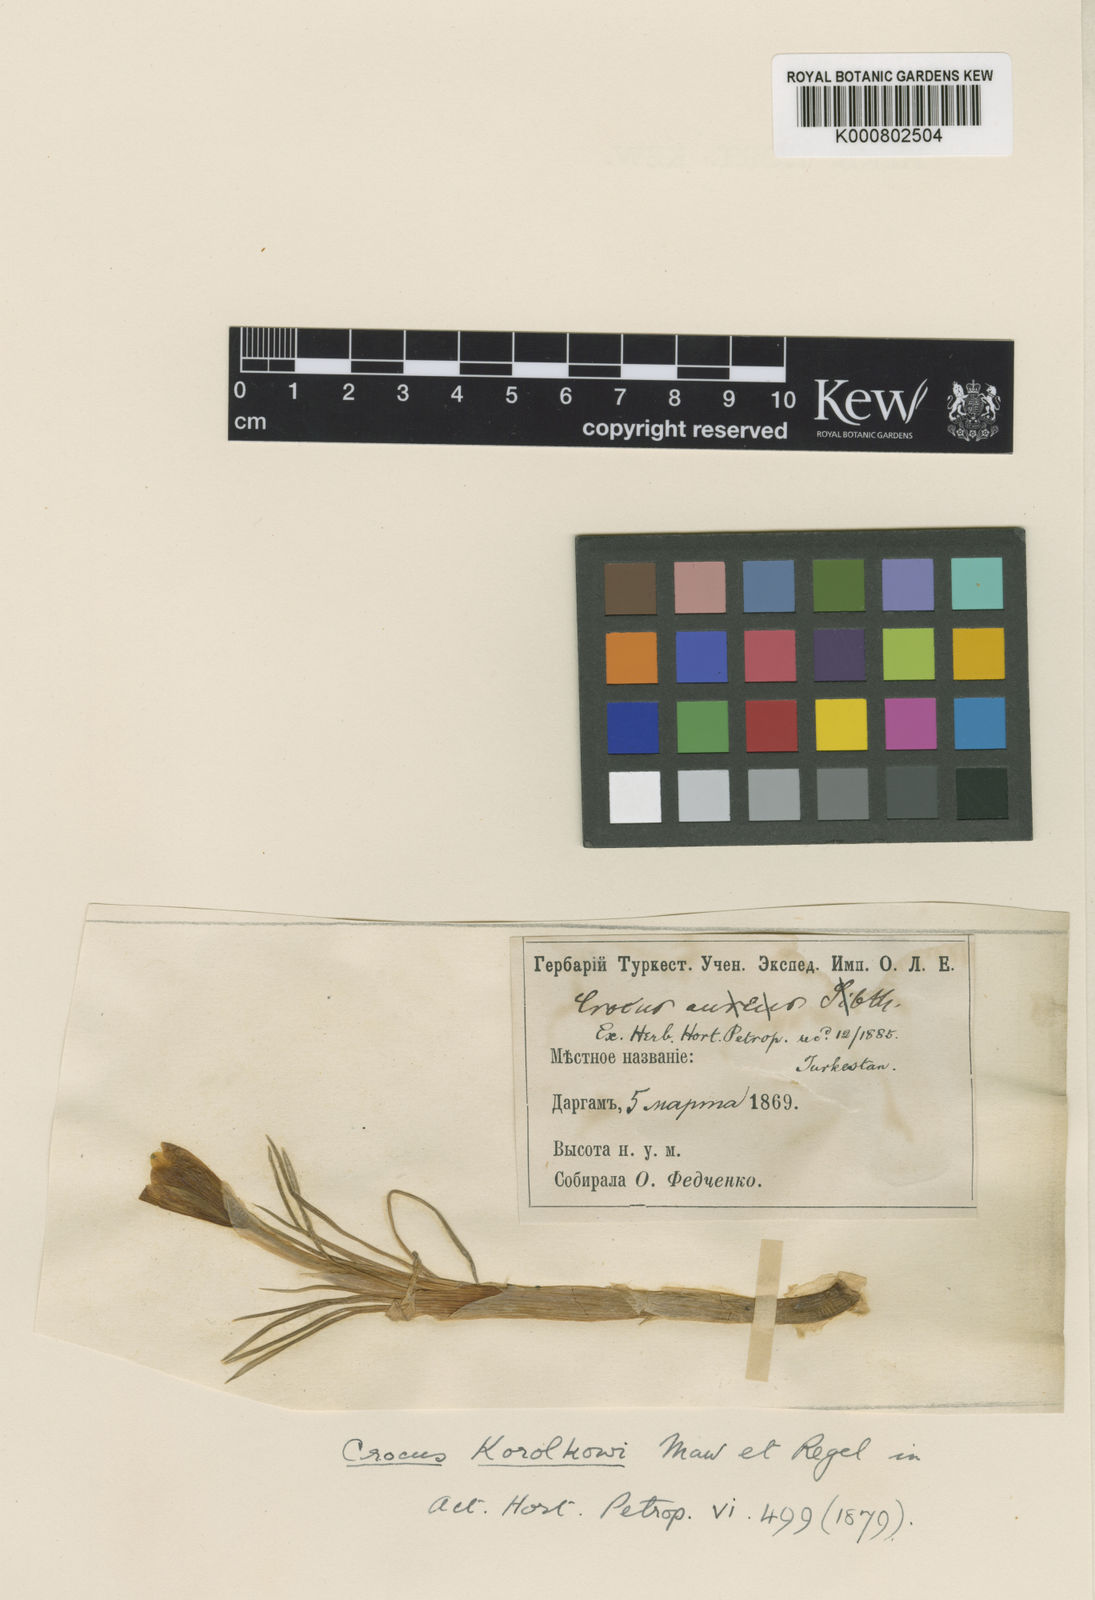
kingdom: Plantae
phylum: Tracheophyta
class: Liliopsida
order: Asparagales
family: Iridaceae
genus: Crocus
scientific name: Crocus korolkowii
